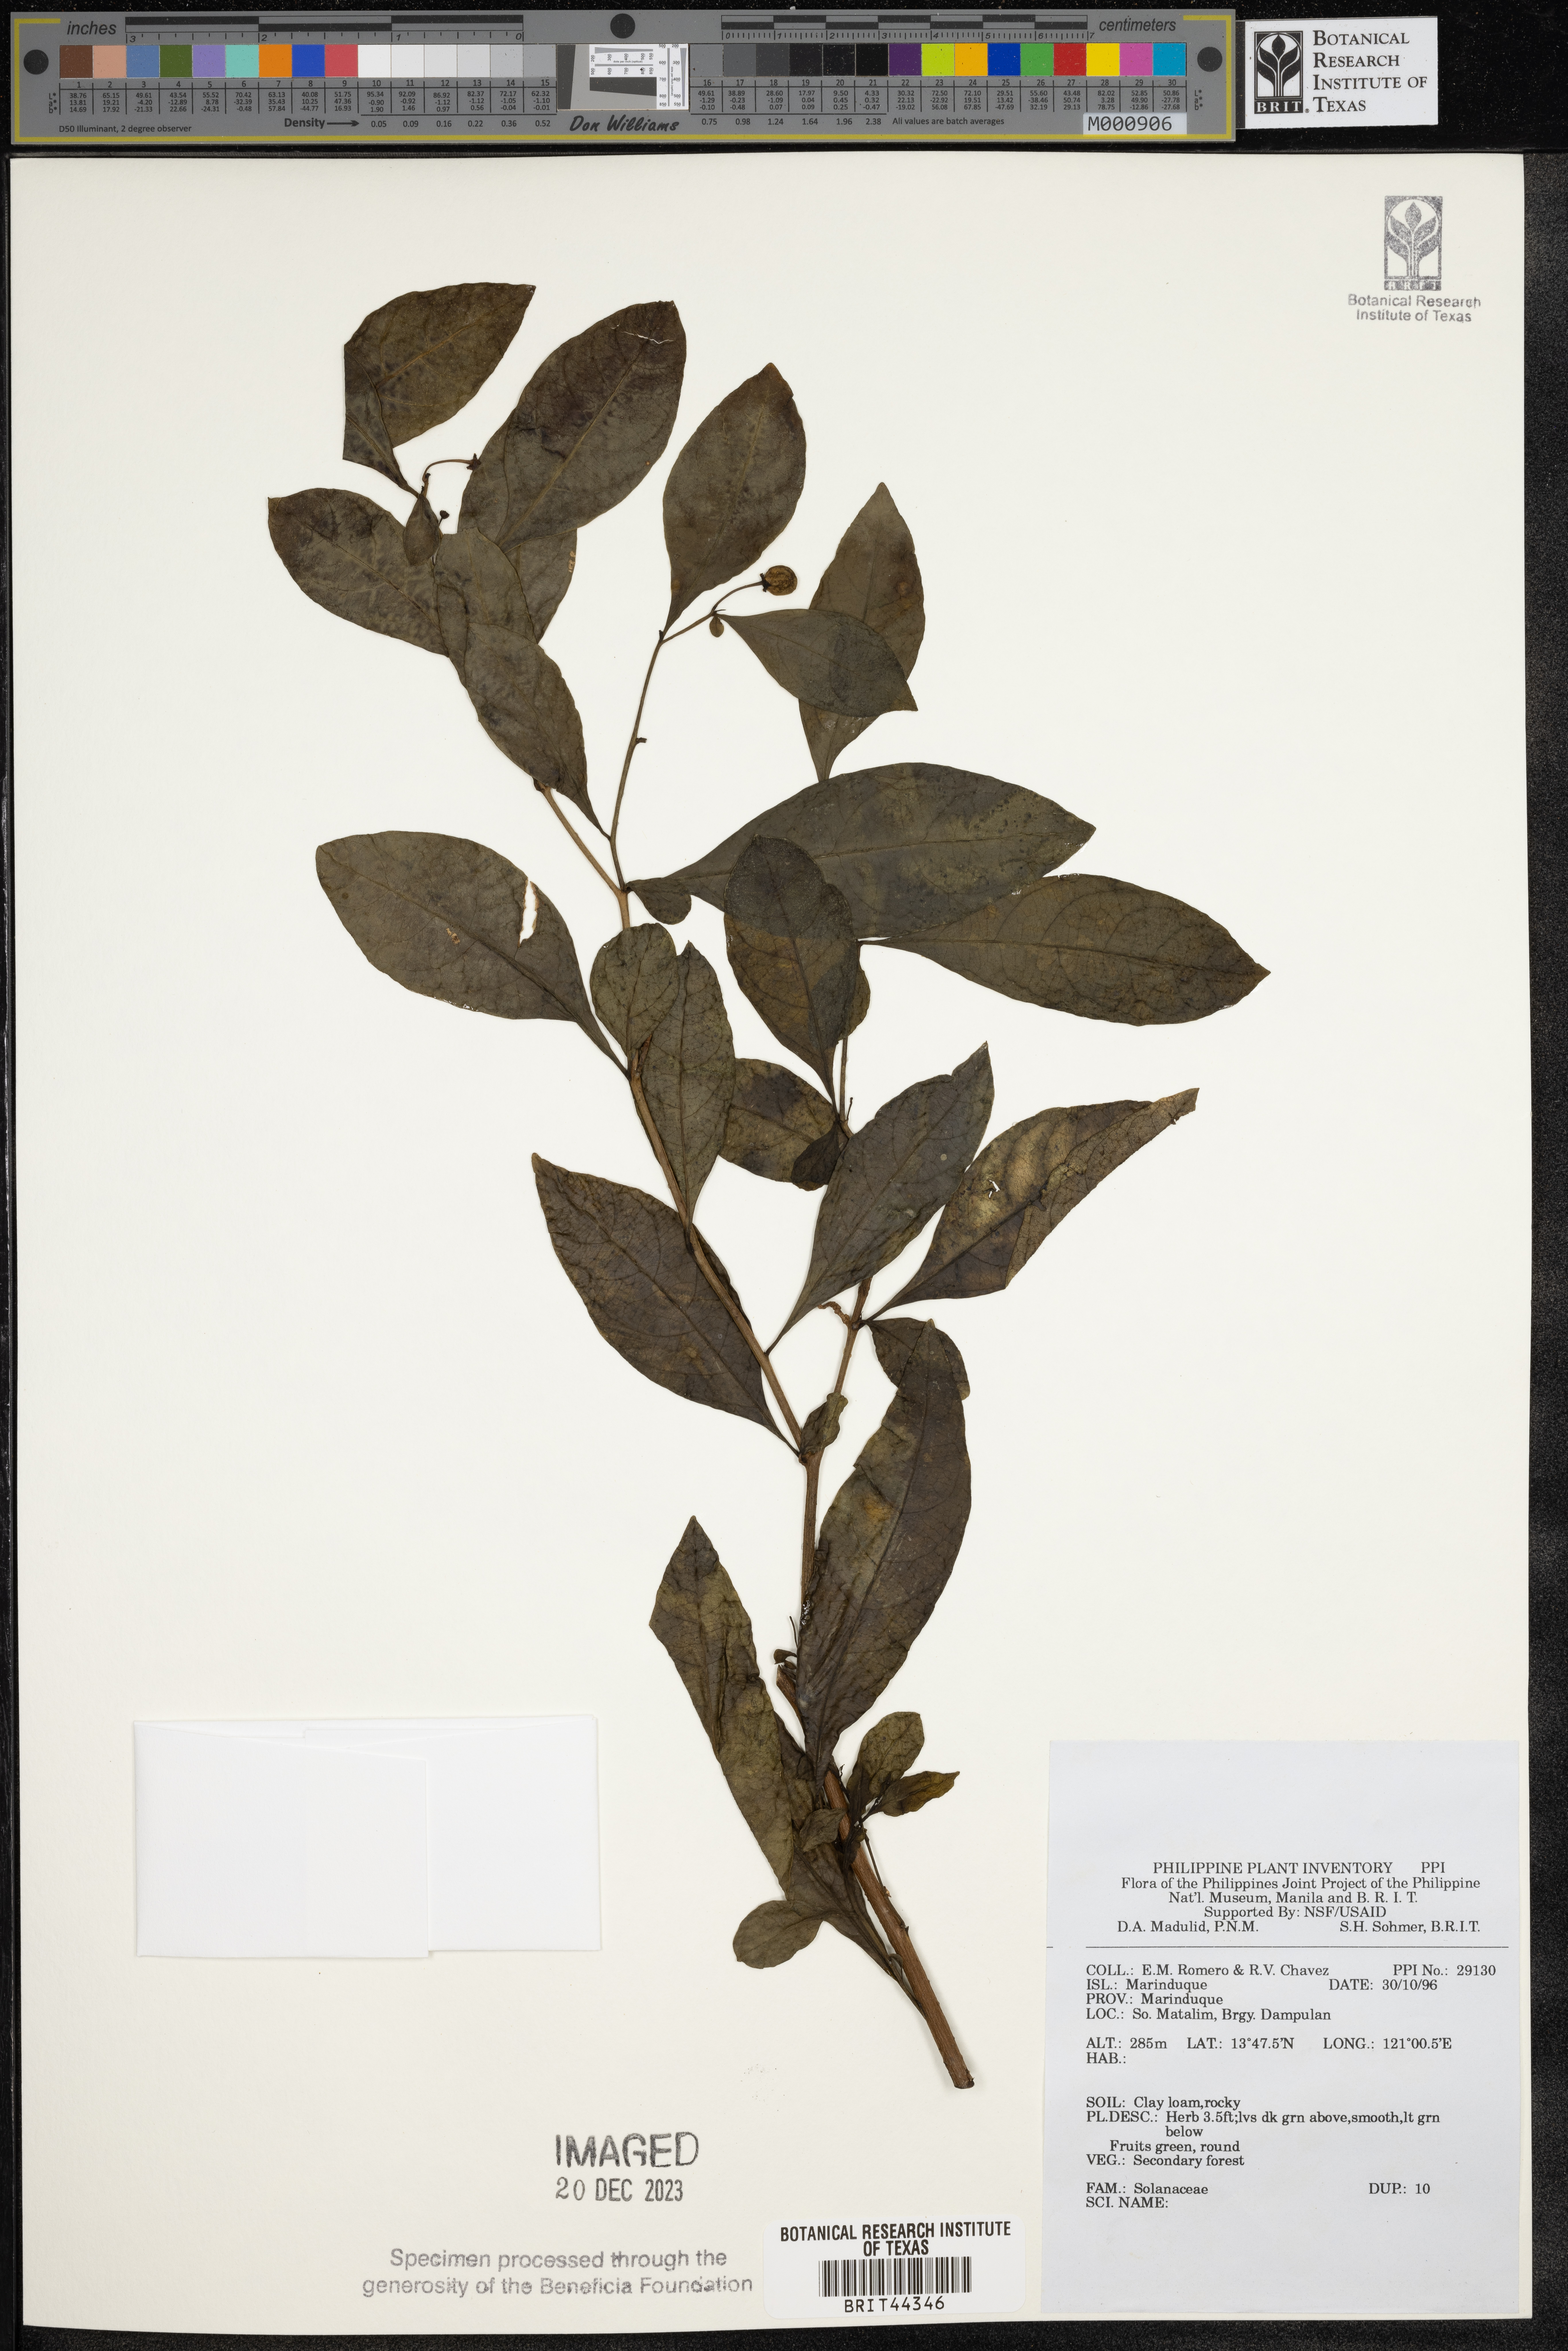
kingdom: Plantae
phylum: Tracheophyta
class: Magnoliopsida
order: Solanales
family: Solanaceae
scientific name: Solanaceae
